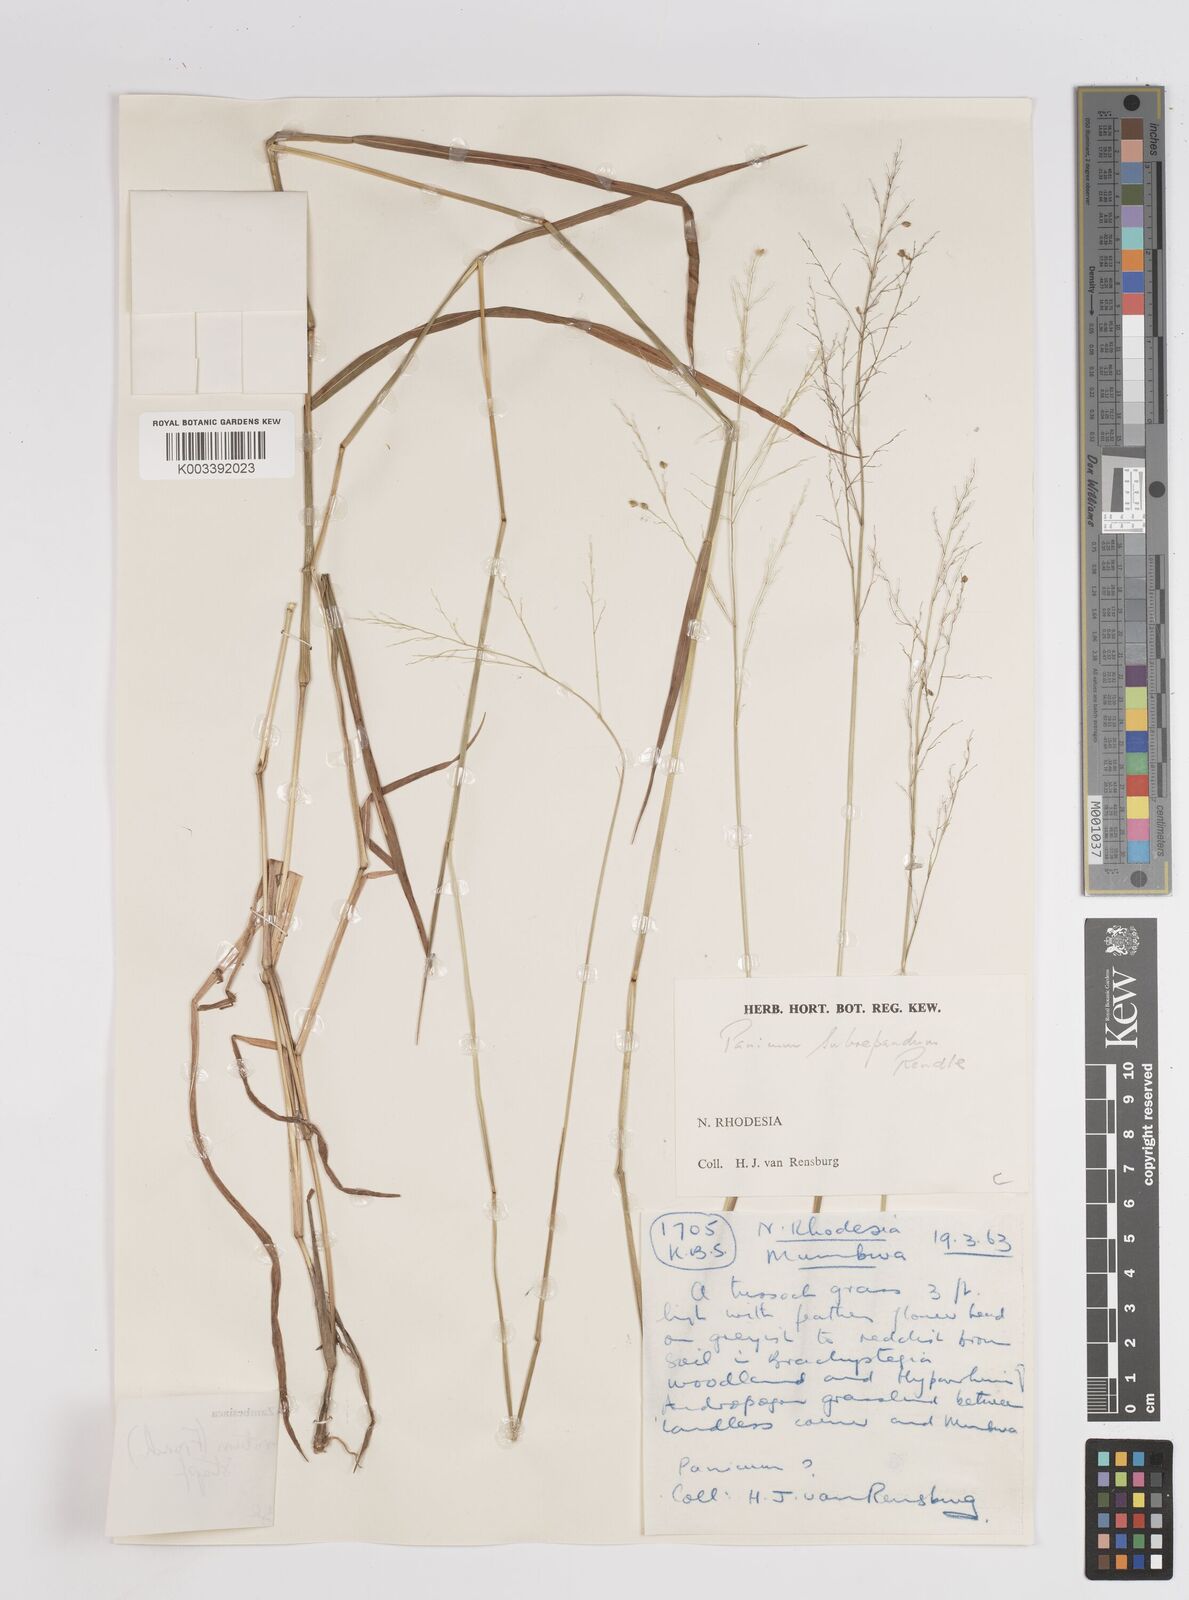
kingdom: Plantae
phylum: Tracheophyta
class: Liliopsida
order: Poales
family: Poaceae
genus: Trichanthecium
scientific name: Trichanthecium nervatum
